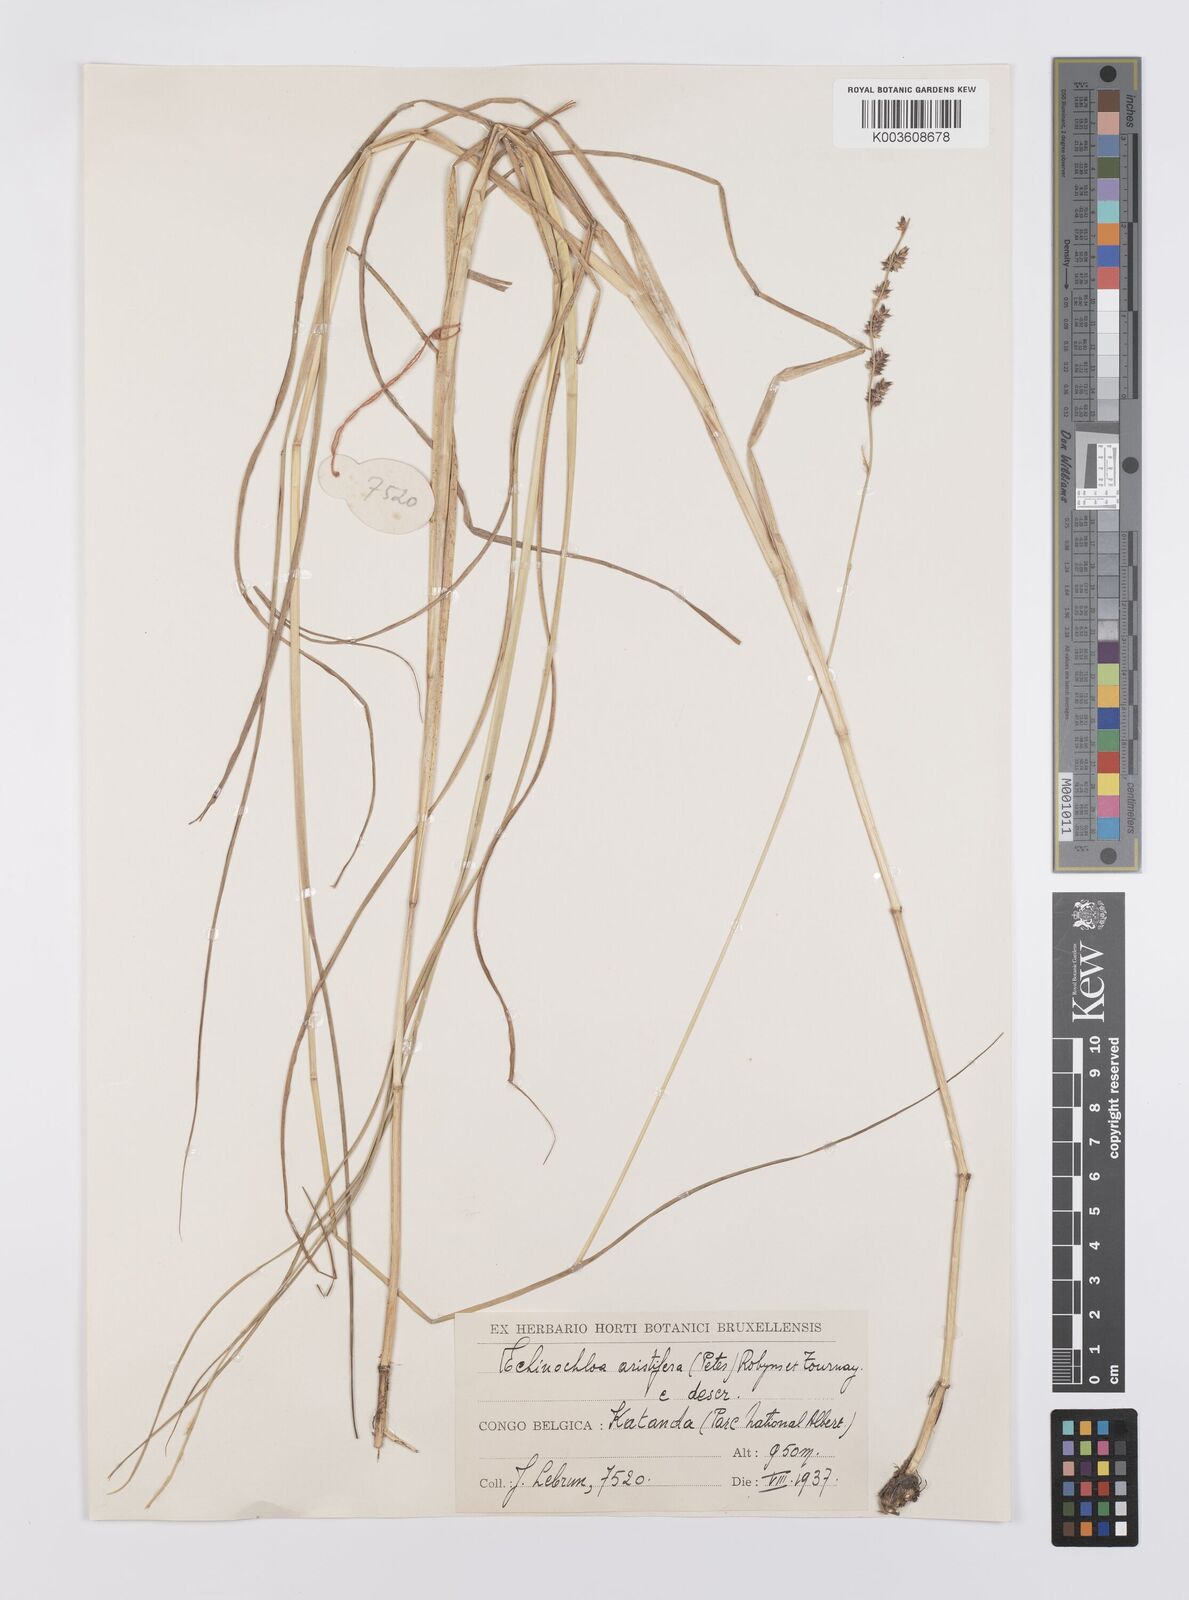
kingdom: Plantae
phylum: Tracheophyta
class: Liliopsida
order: Poales
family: Poaceae
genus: Echinochloa
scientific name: Echinochloa haploclada
